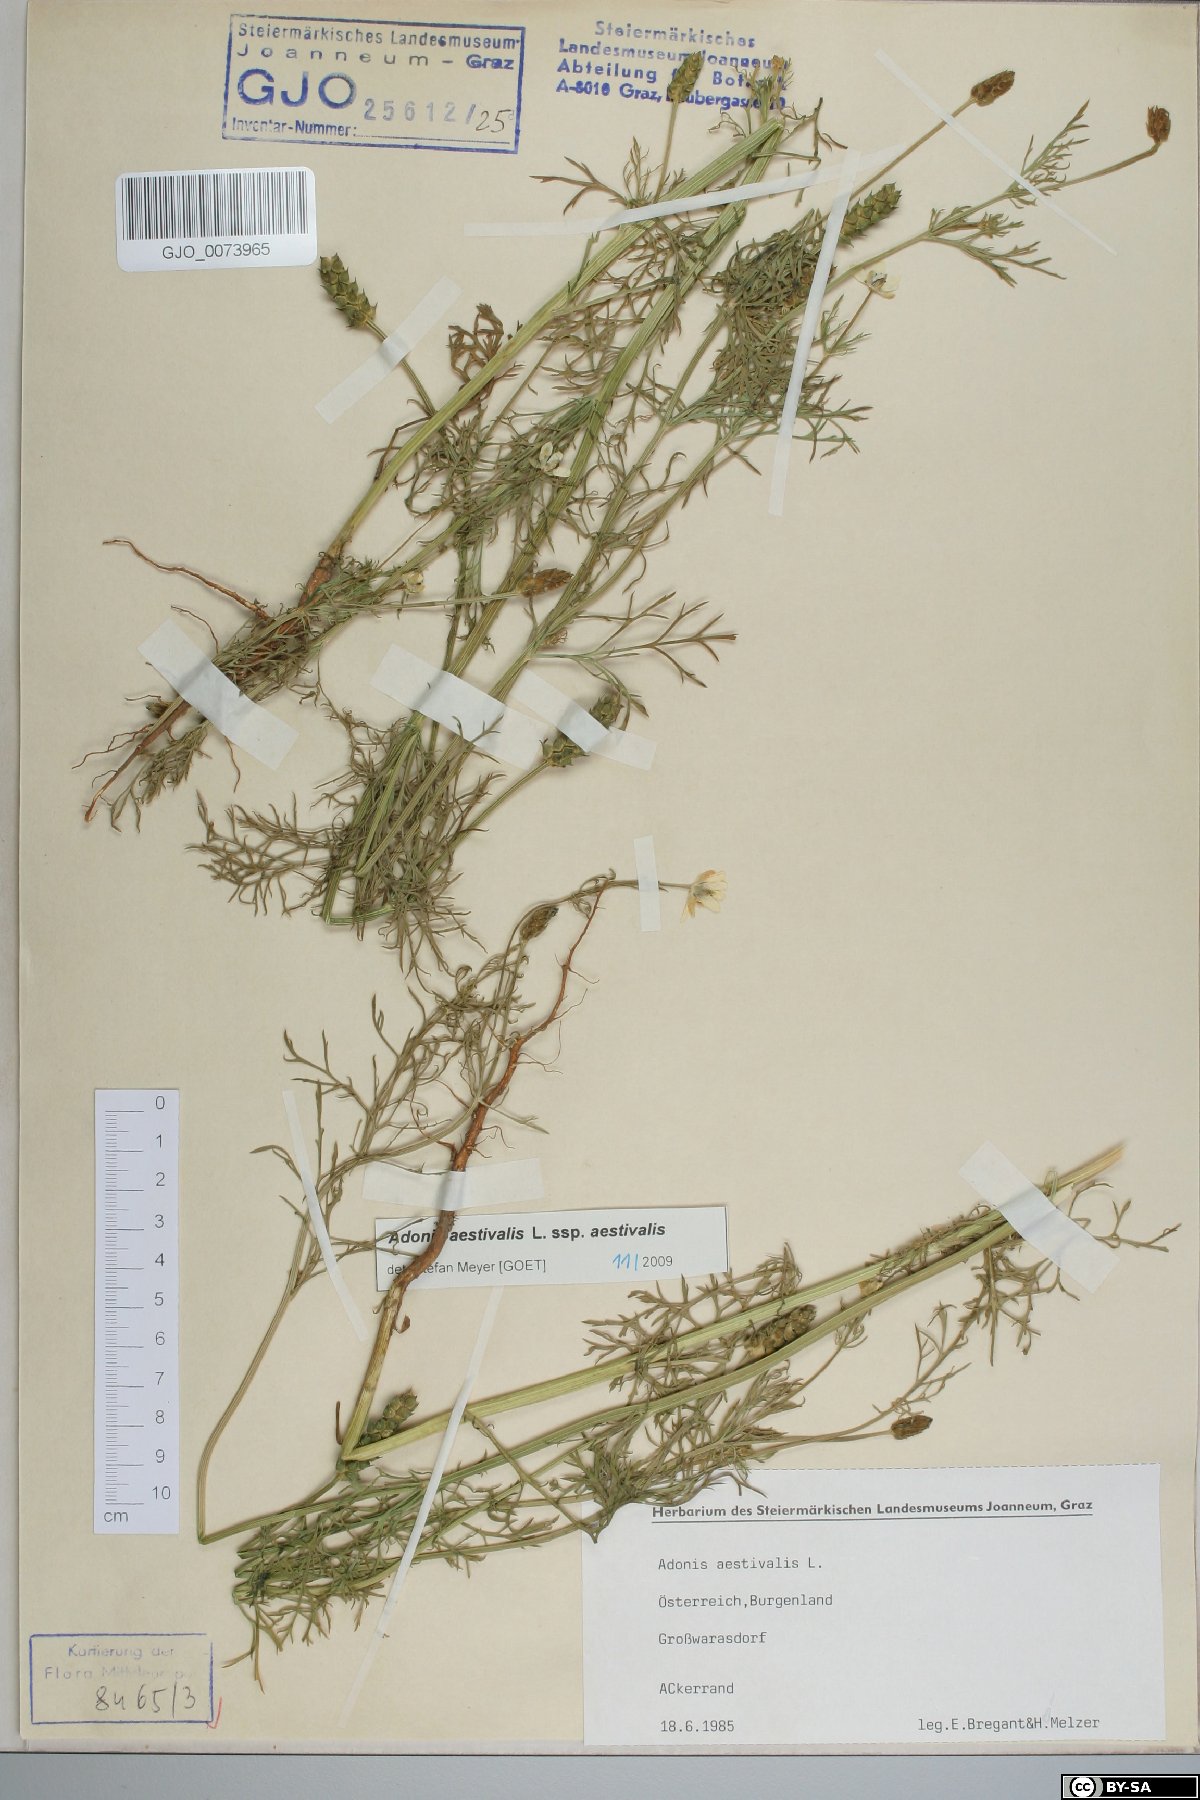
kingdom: Plantae
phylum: Tracheophyta
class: Magnoliopsida
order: Ranunculales
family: Ranunculaceae
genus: Adonis
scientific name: Adonis aestivalis
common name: Summer pheasant's-eye
